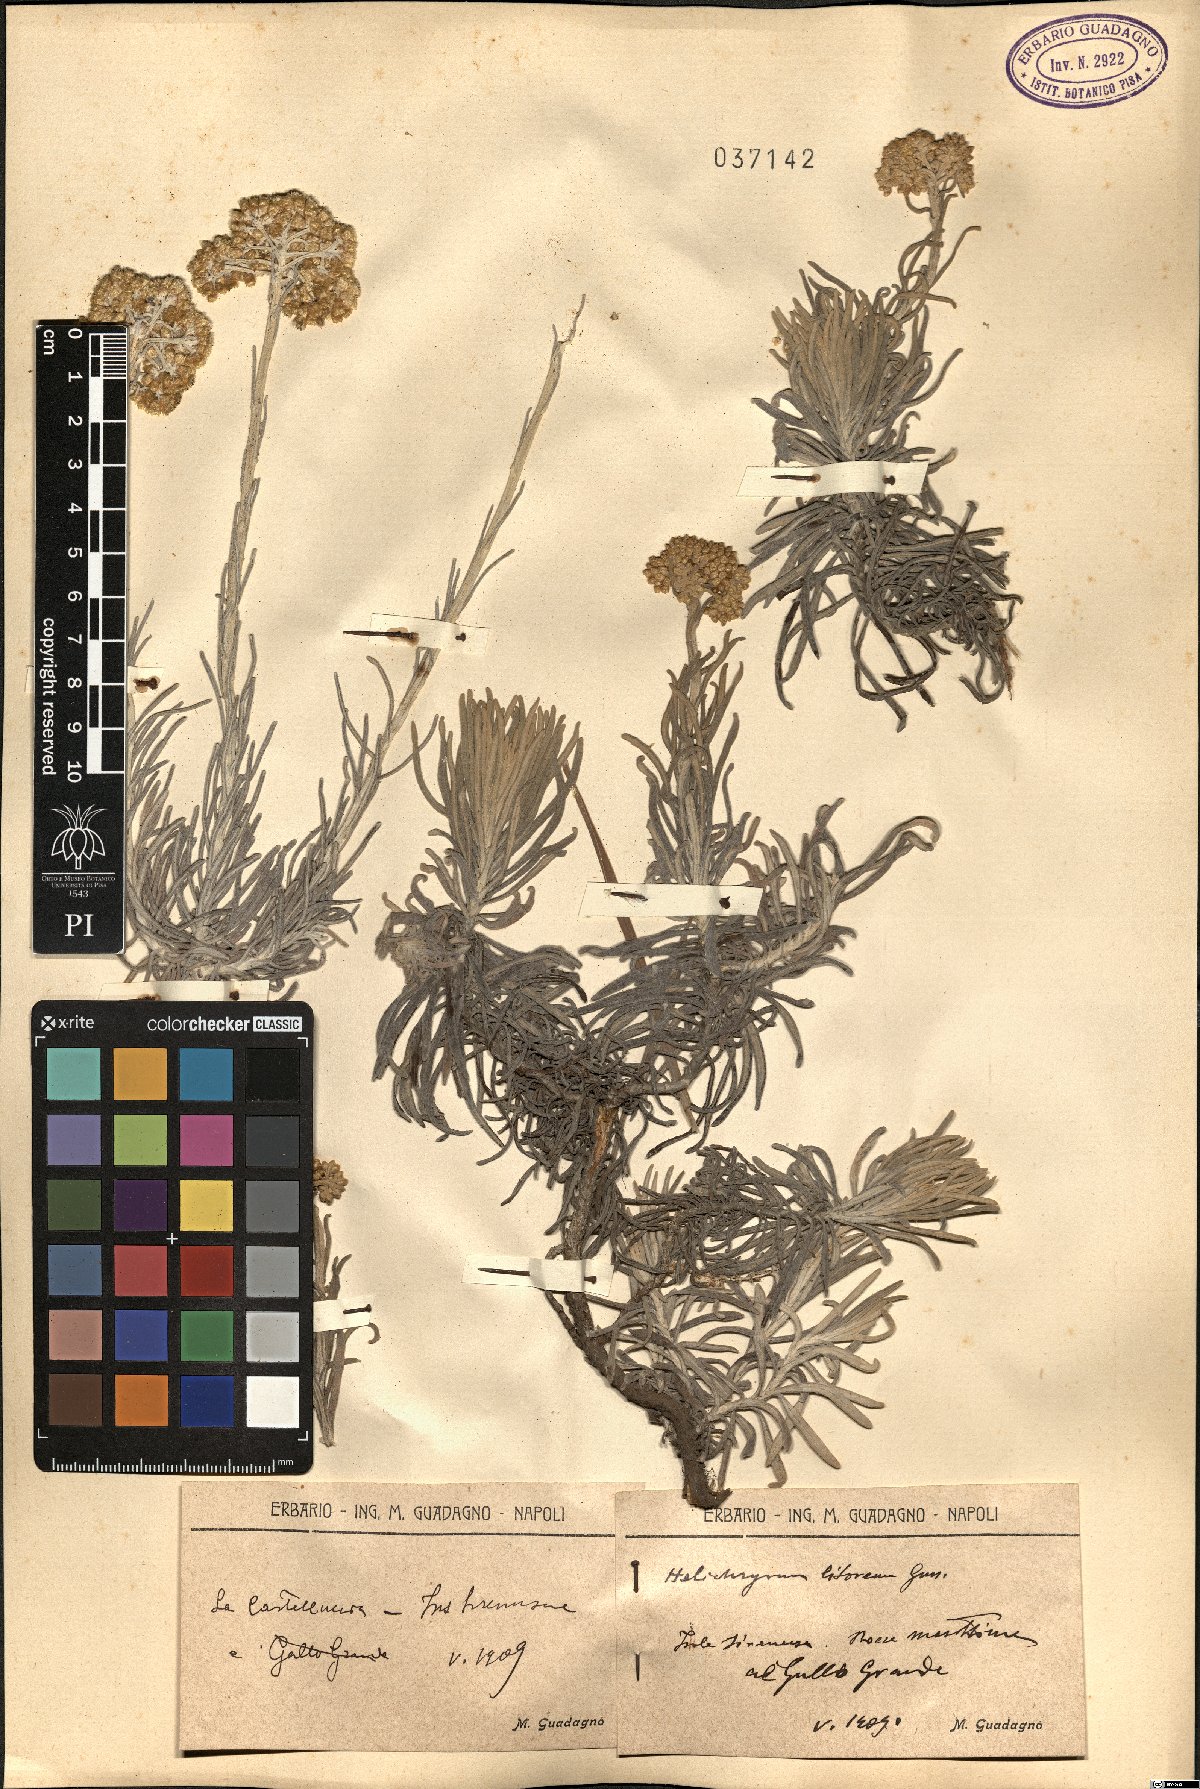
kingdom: Plantae
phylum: Tracheophyta
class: Magnoliopsida
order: Asterales
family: Asteraceae
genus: Helichrysum
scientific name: Helichrysum litoreum
